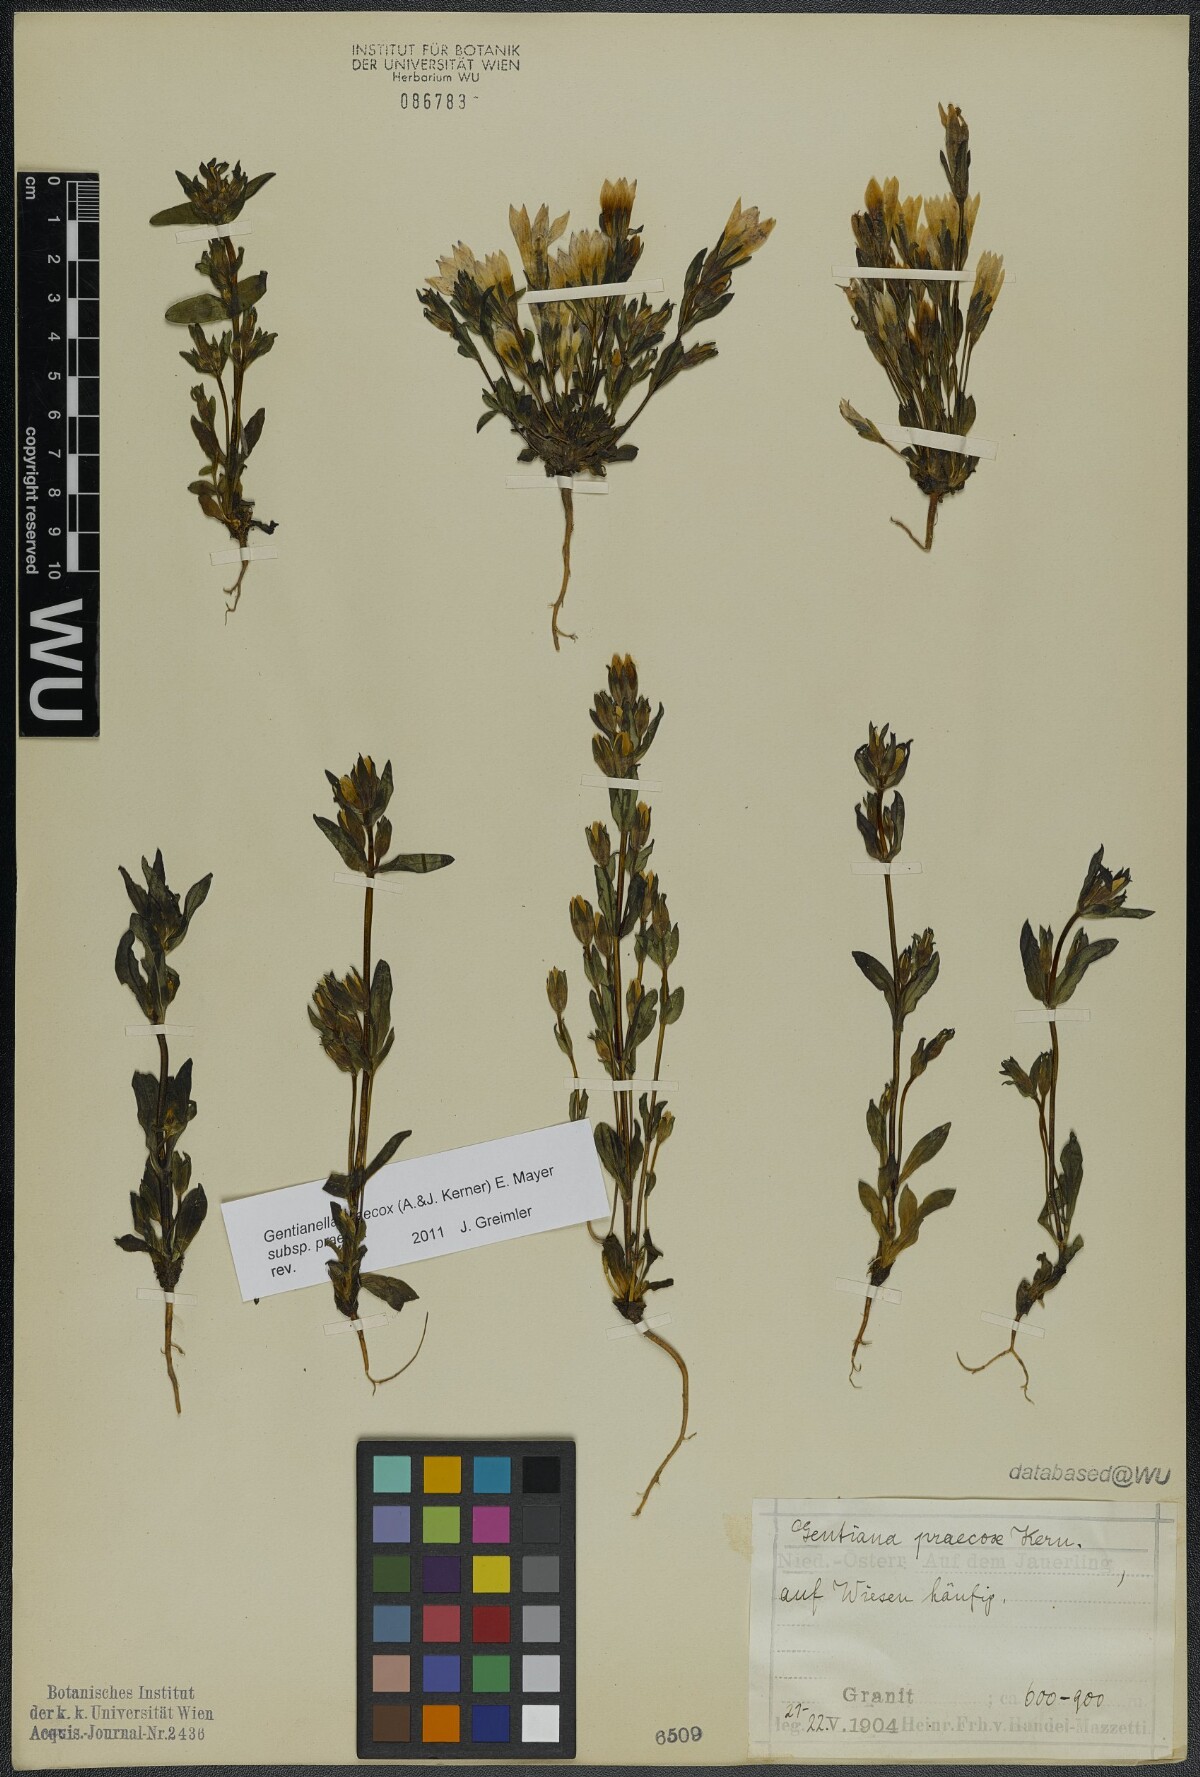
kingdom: Plantae
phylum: Tracheophyta
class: Magnoliopsida
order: Gentianales
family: Gentianaceae
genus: Gentianella
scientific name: Gentianella praecox
